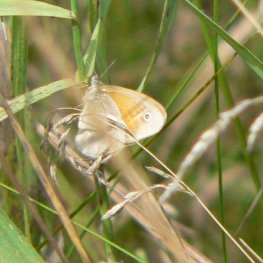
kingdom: Animalia
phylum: Arthropoda
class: Insecta
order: Lepidoptera
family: Nymphalidae
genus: Coenonympha
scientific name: Coenonympha tullia
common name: Large Heath
